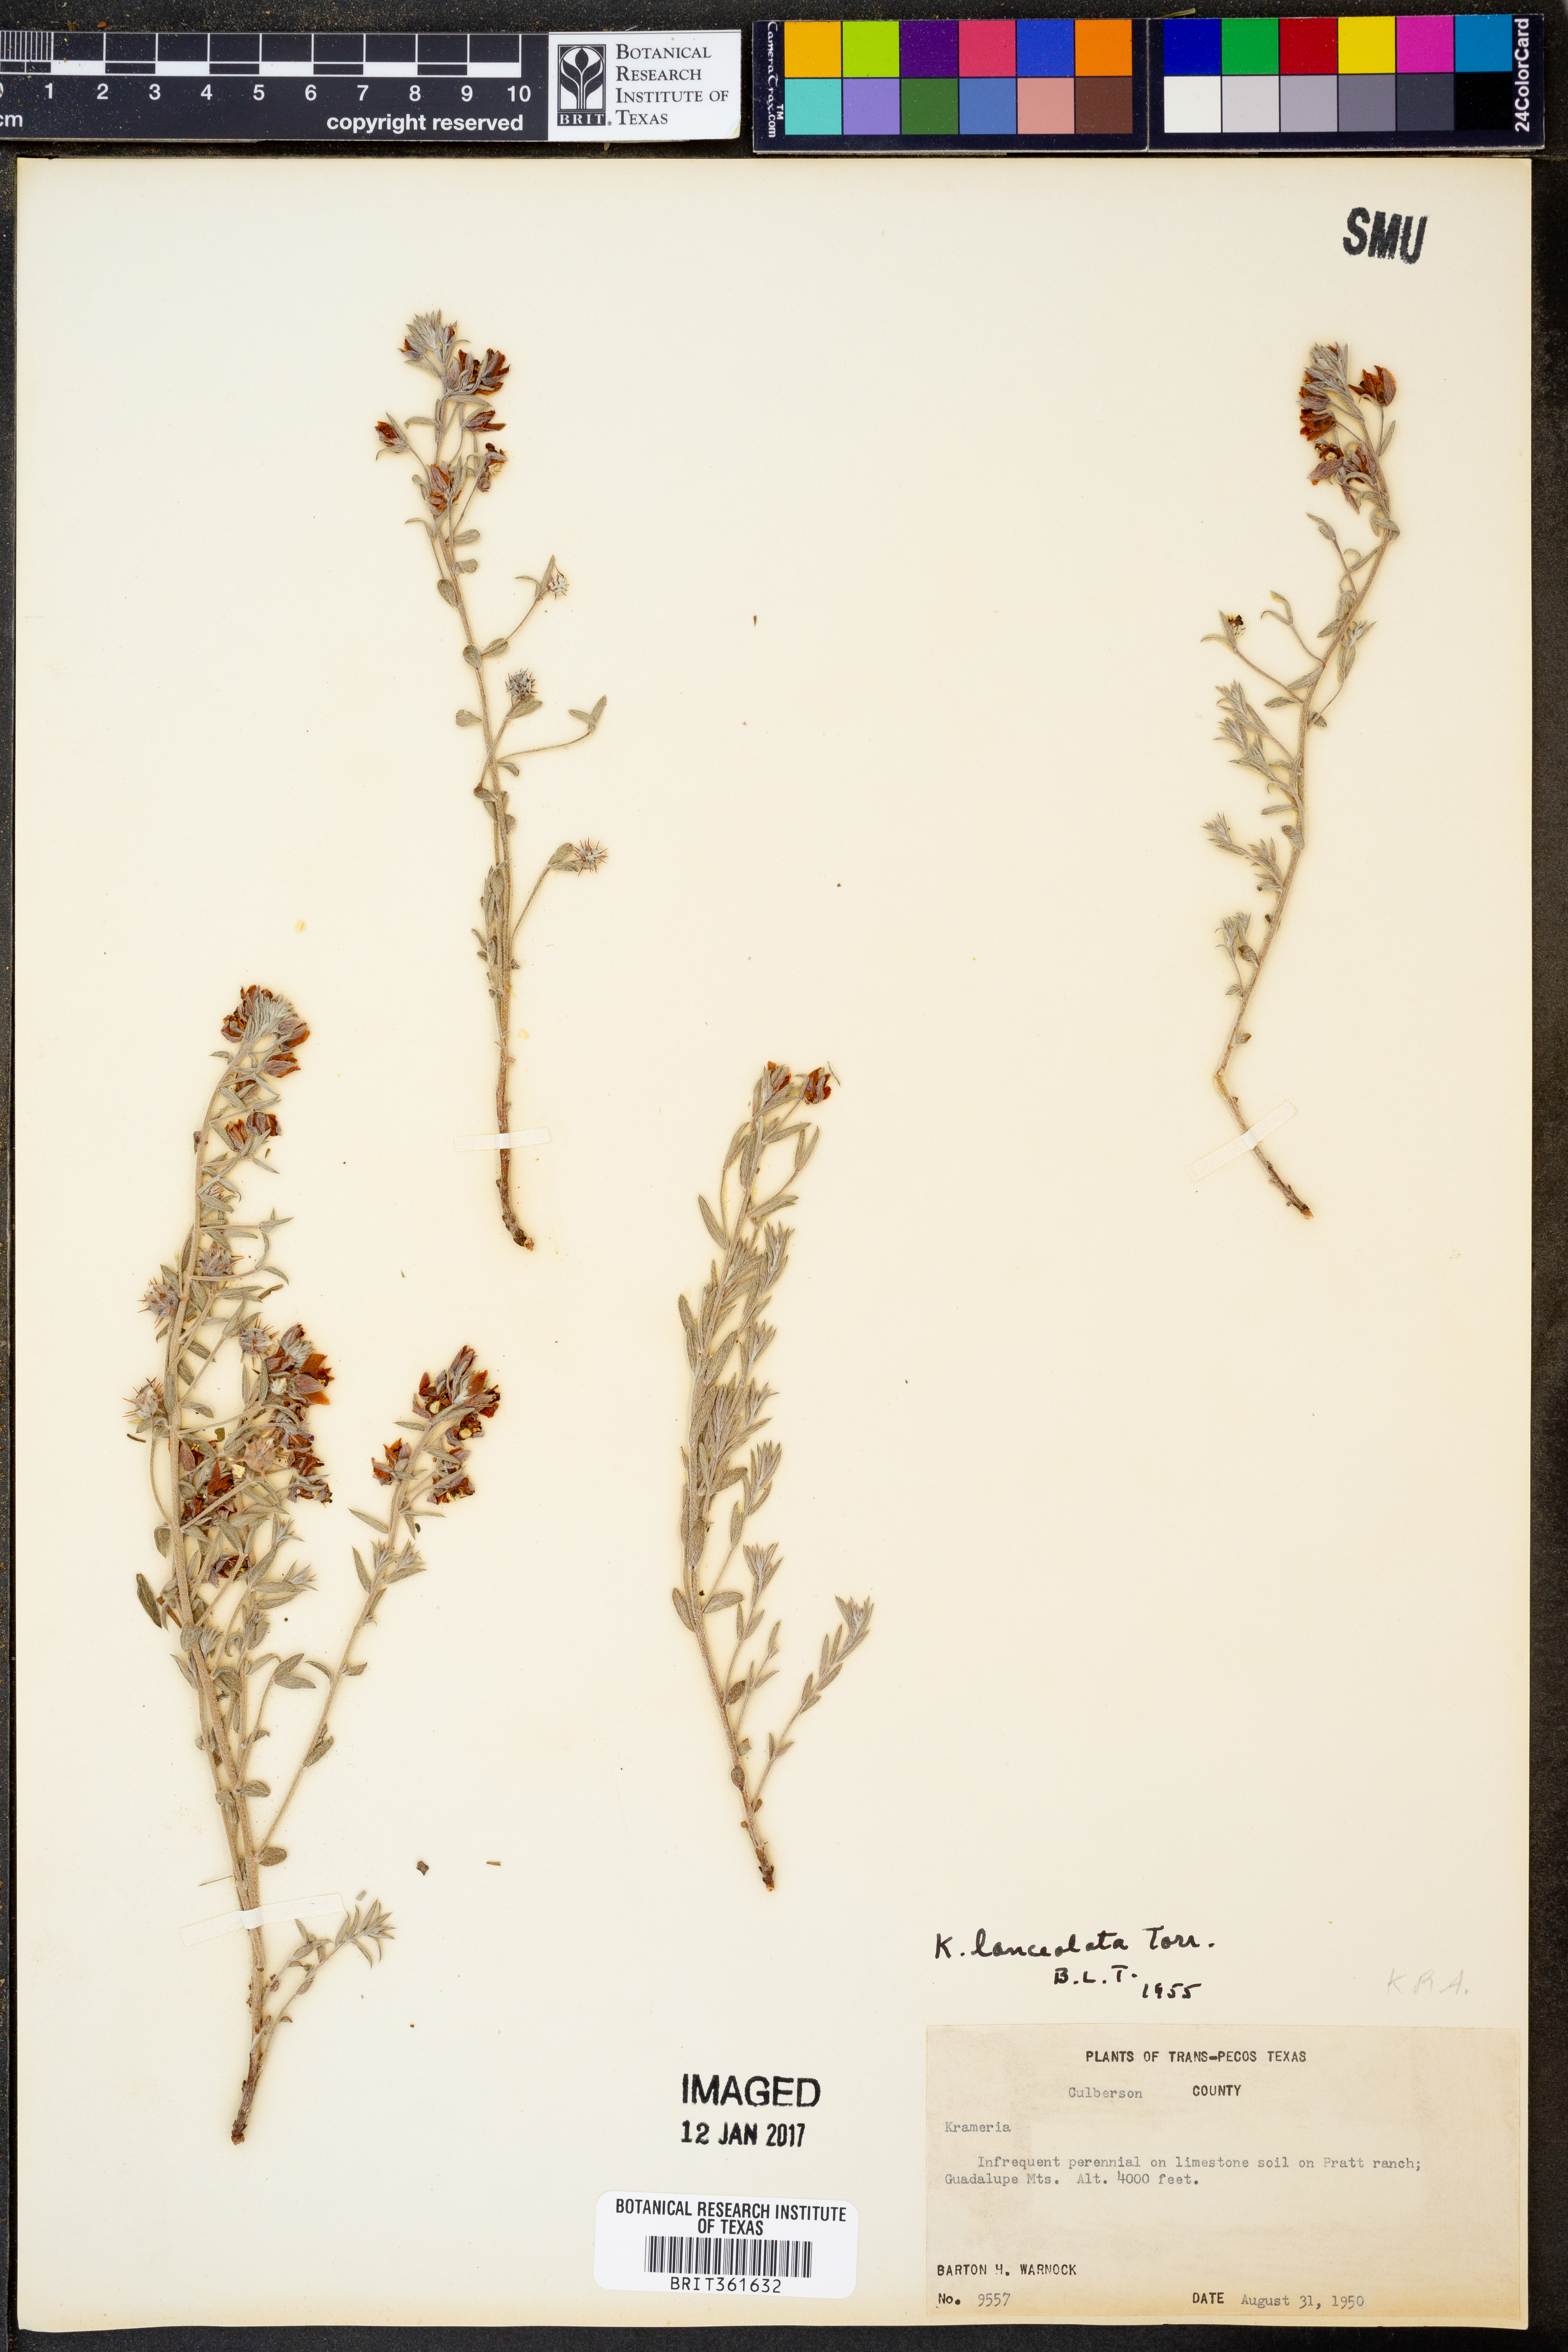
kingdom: Plantae
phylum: Tracheophyta
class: Magnoliopsida
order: Zygophyllales
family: Krameriaceae
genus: Krameria
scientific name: Krameria lanceolata
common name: Ratany
